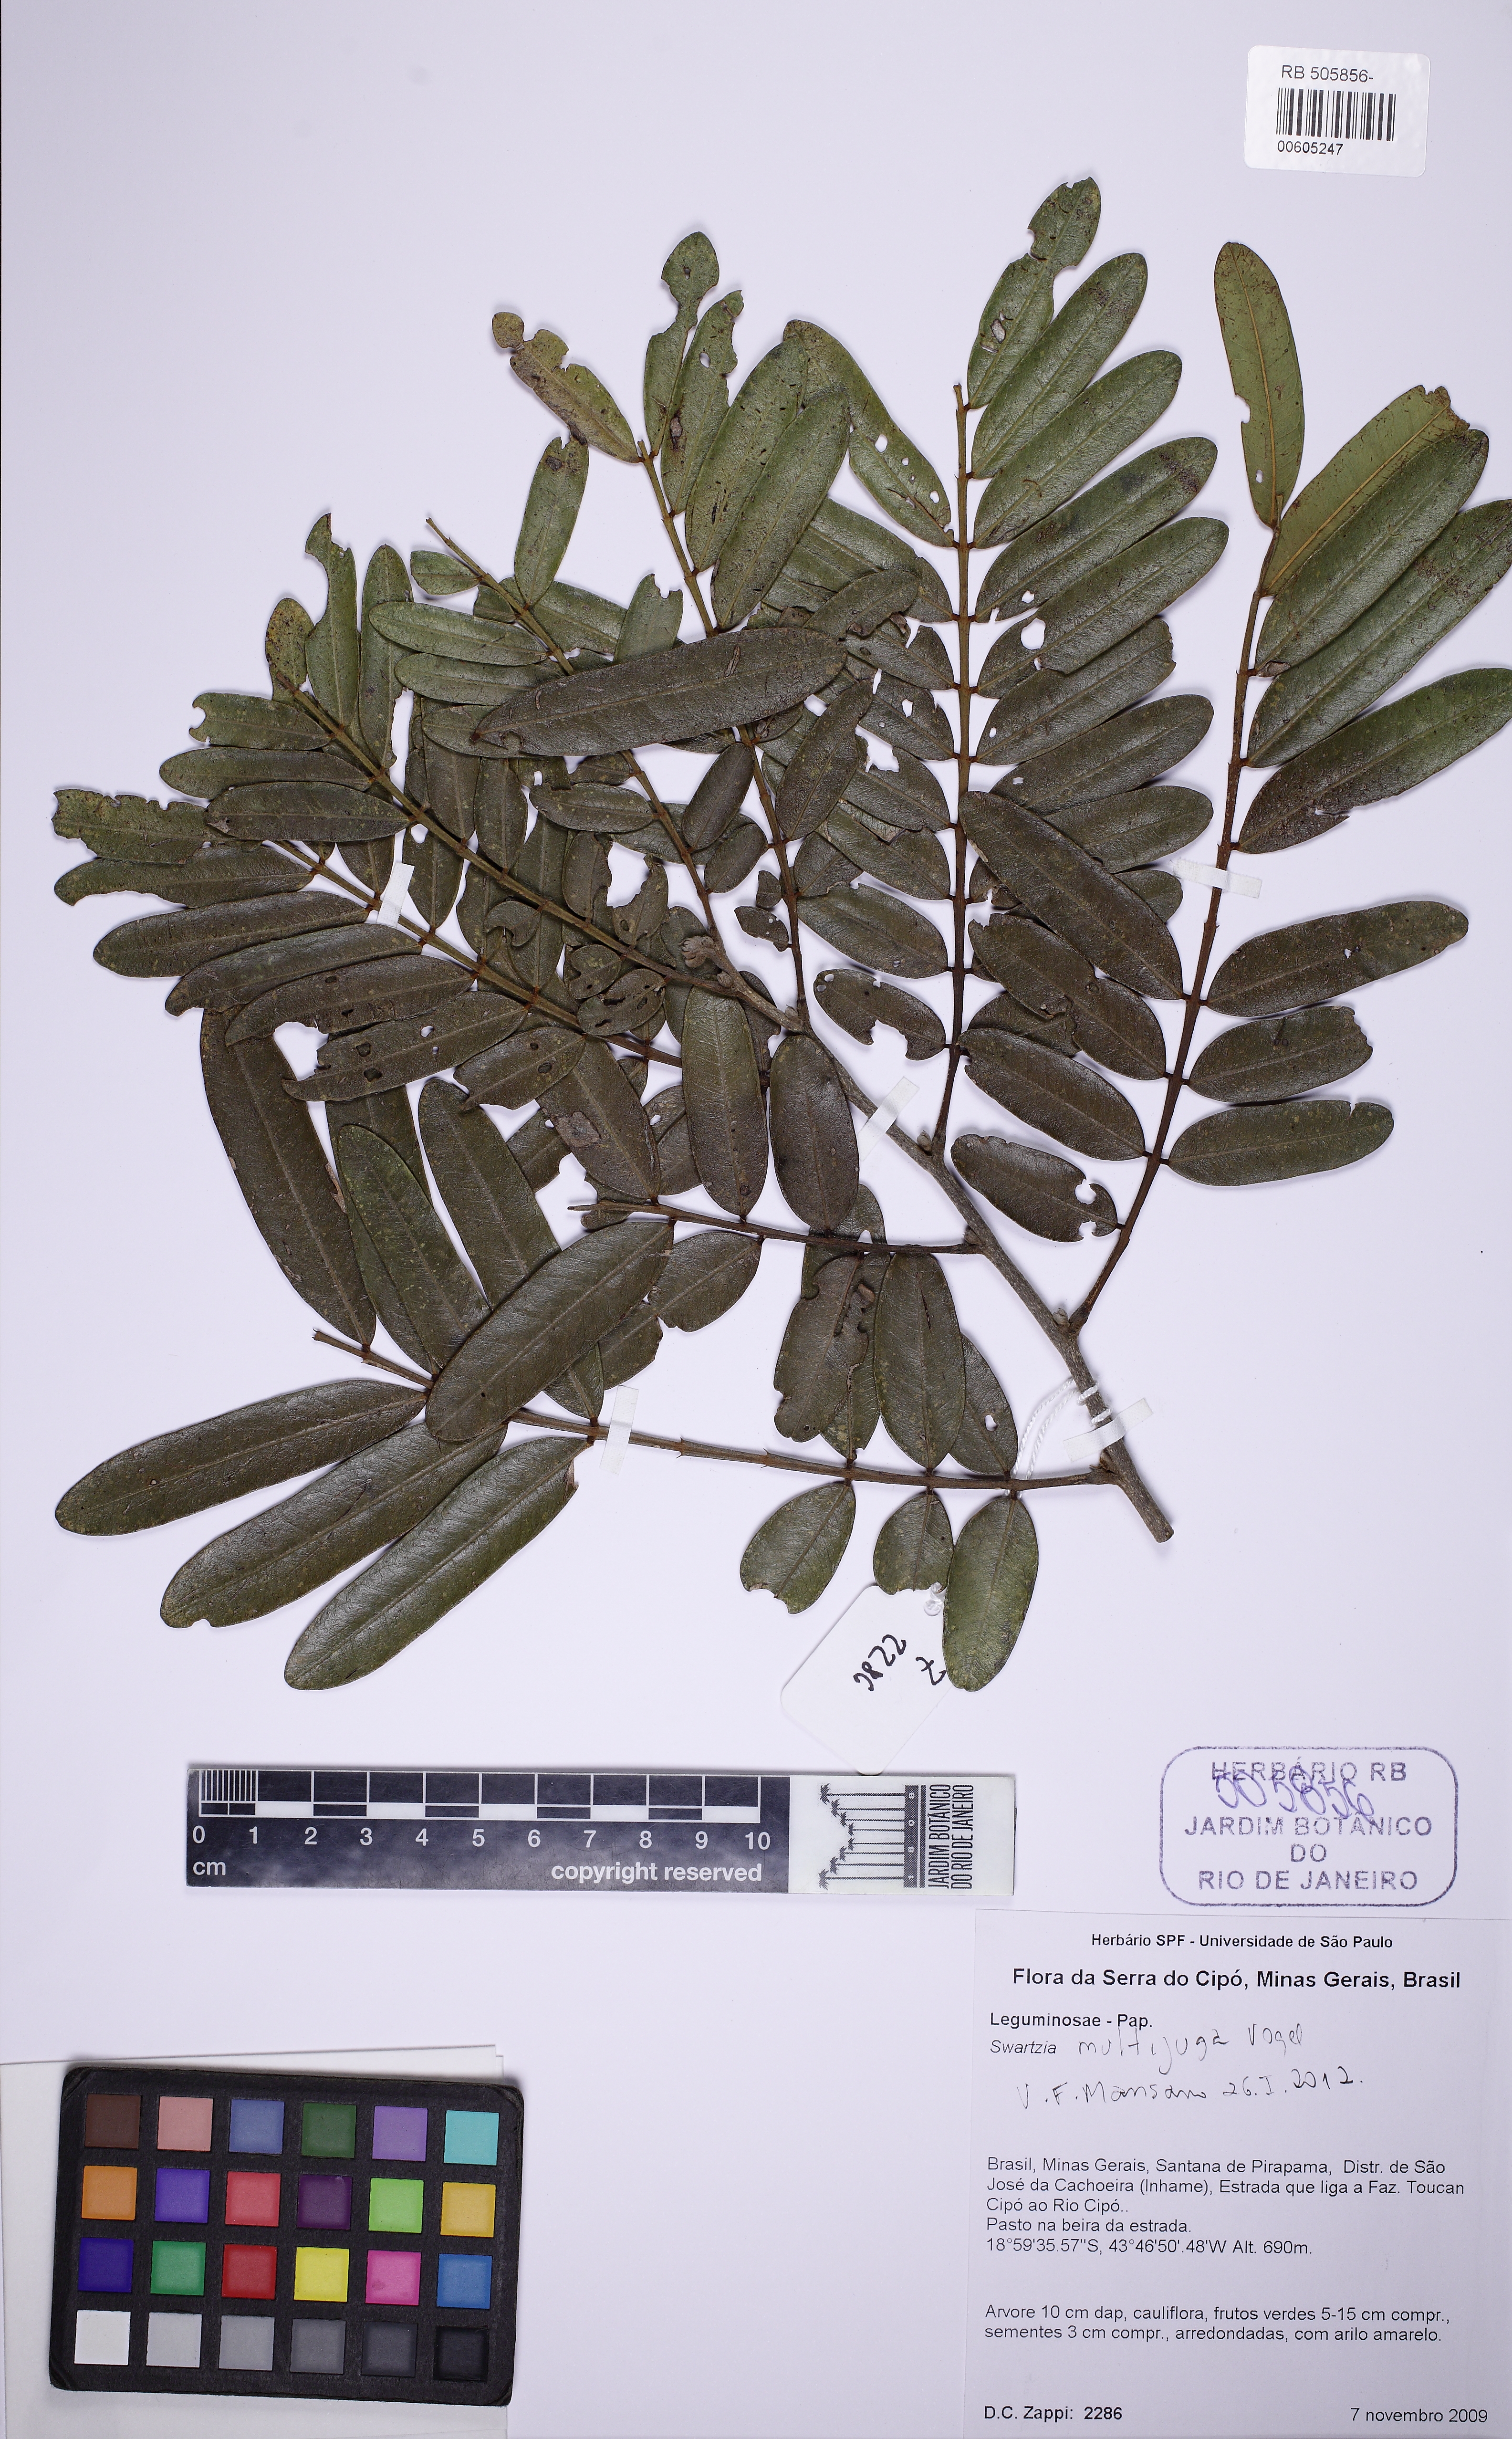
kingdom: Plantae
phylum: Tracheophyta
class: Magnoliopsida
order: Fabales
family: Fabaceae
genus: Swartzia
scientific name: Swartzia multijuga
